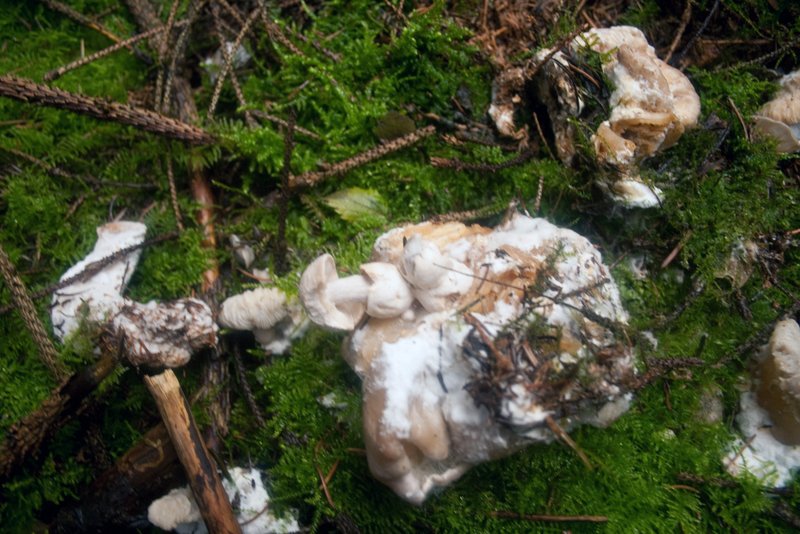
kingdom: Fungi
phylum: Basidiomycota
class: Agaricomycetes
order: Agaricales
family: Pluteaceae
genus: Volvariella
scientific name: Volvariella surrecta
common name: snyltende posesvamp
